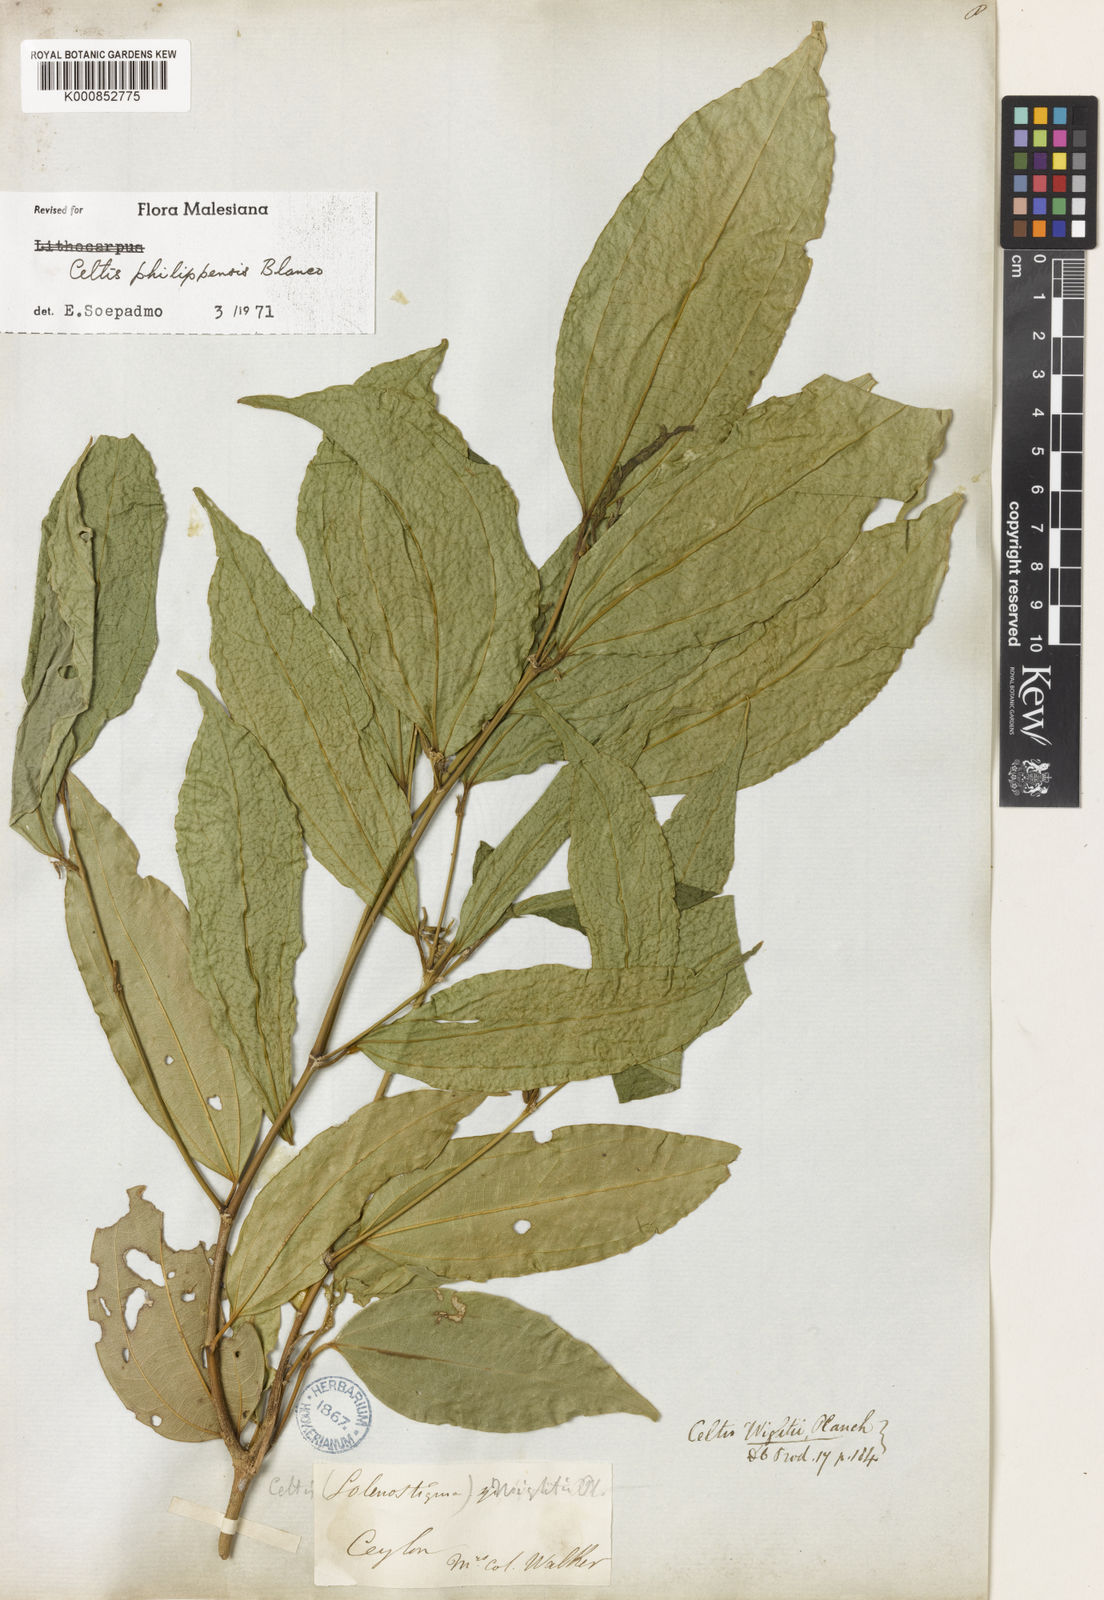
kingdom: Plantae
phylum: Tracheophyta
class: Magnoliopsida
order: Rosales
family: Cannabaceae
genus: Celtis
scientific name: Celtis philippensis
